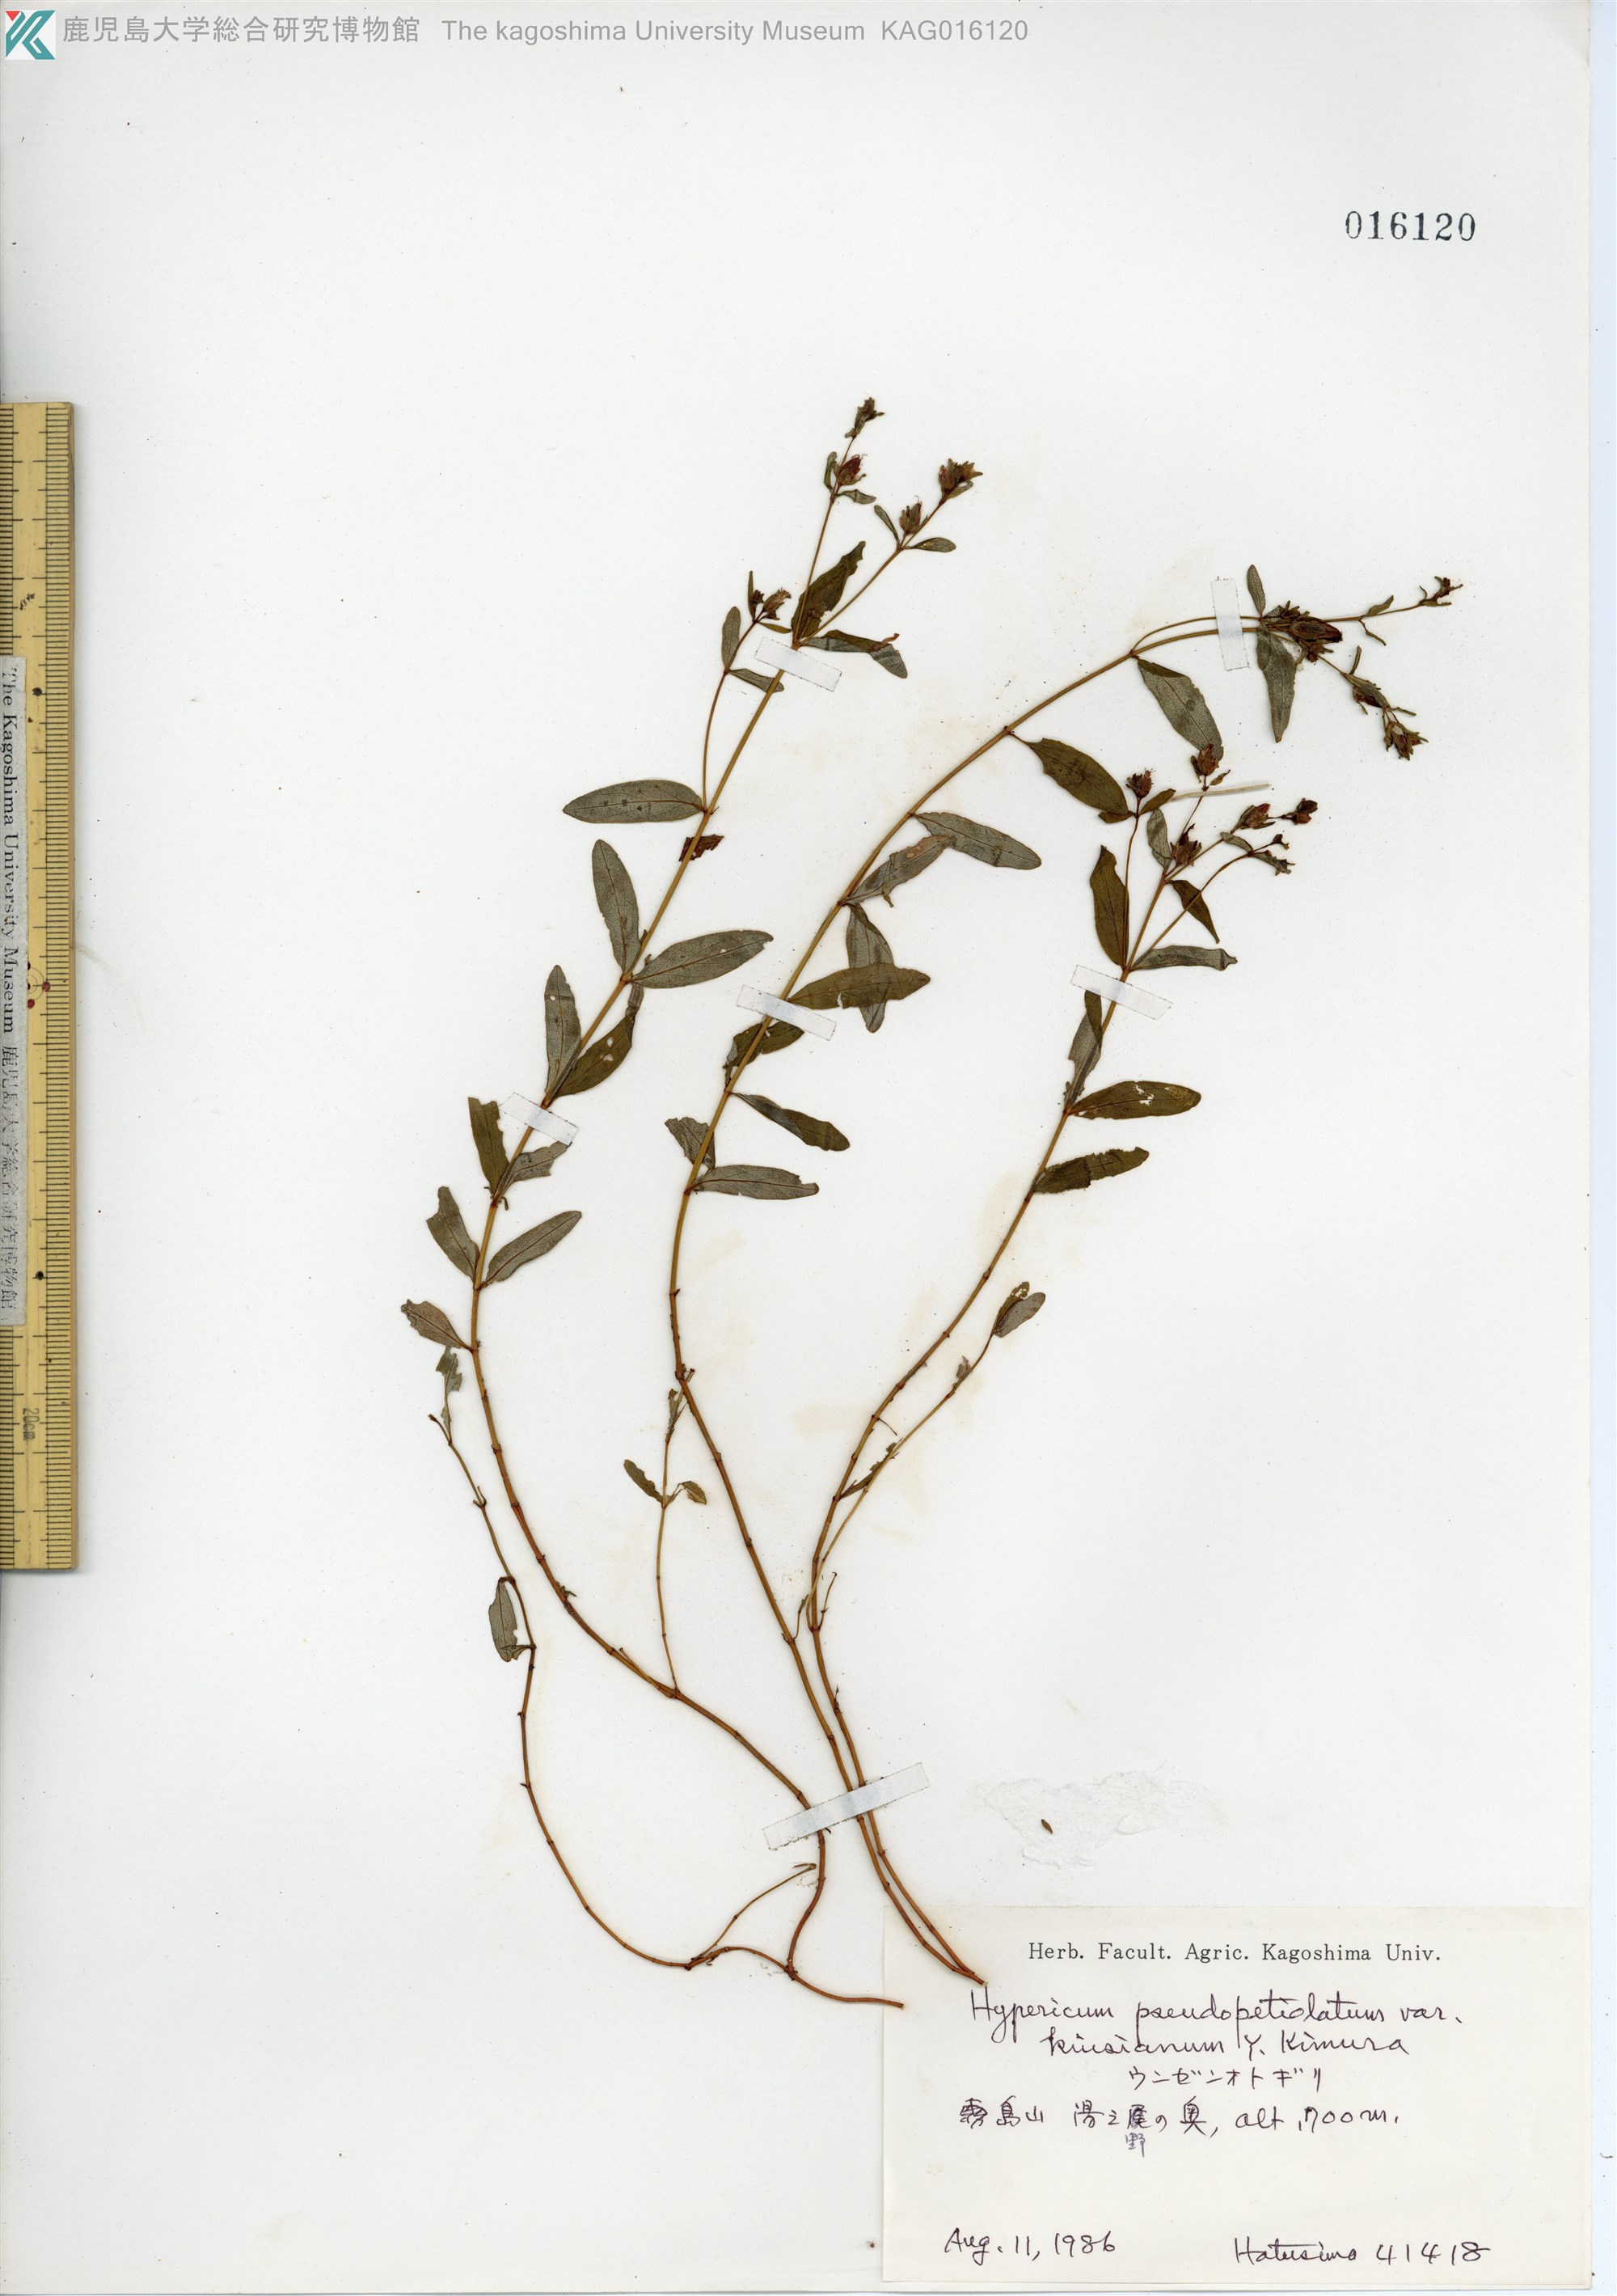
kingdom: Plantae
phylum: Tracheophyta
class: Magnoliopsida
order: Malpighiales
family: Hypericaceae
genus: Hypericum
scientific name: Hypericum pseudopetiolatum
